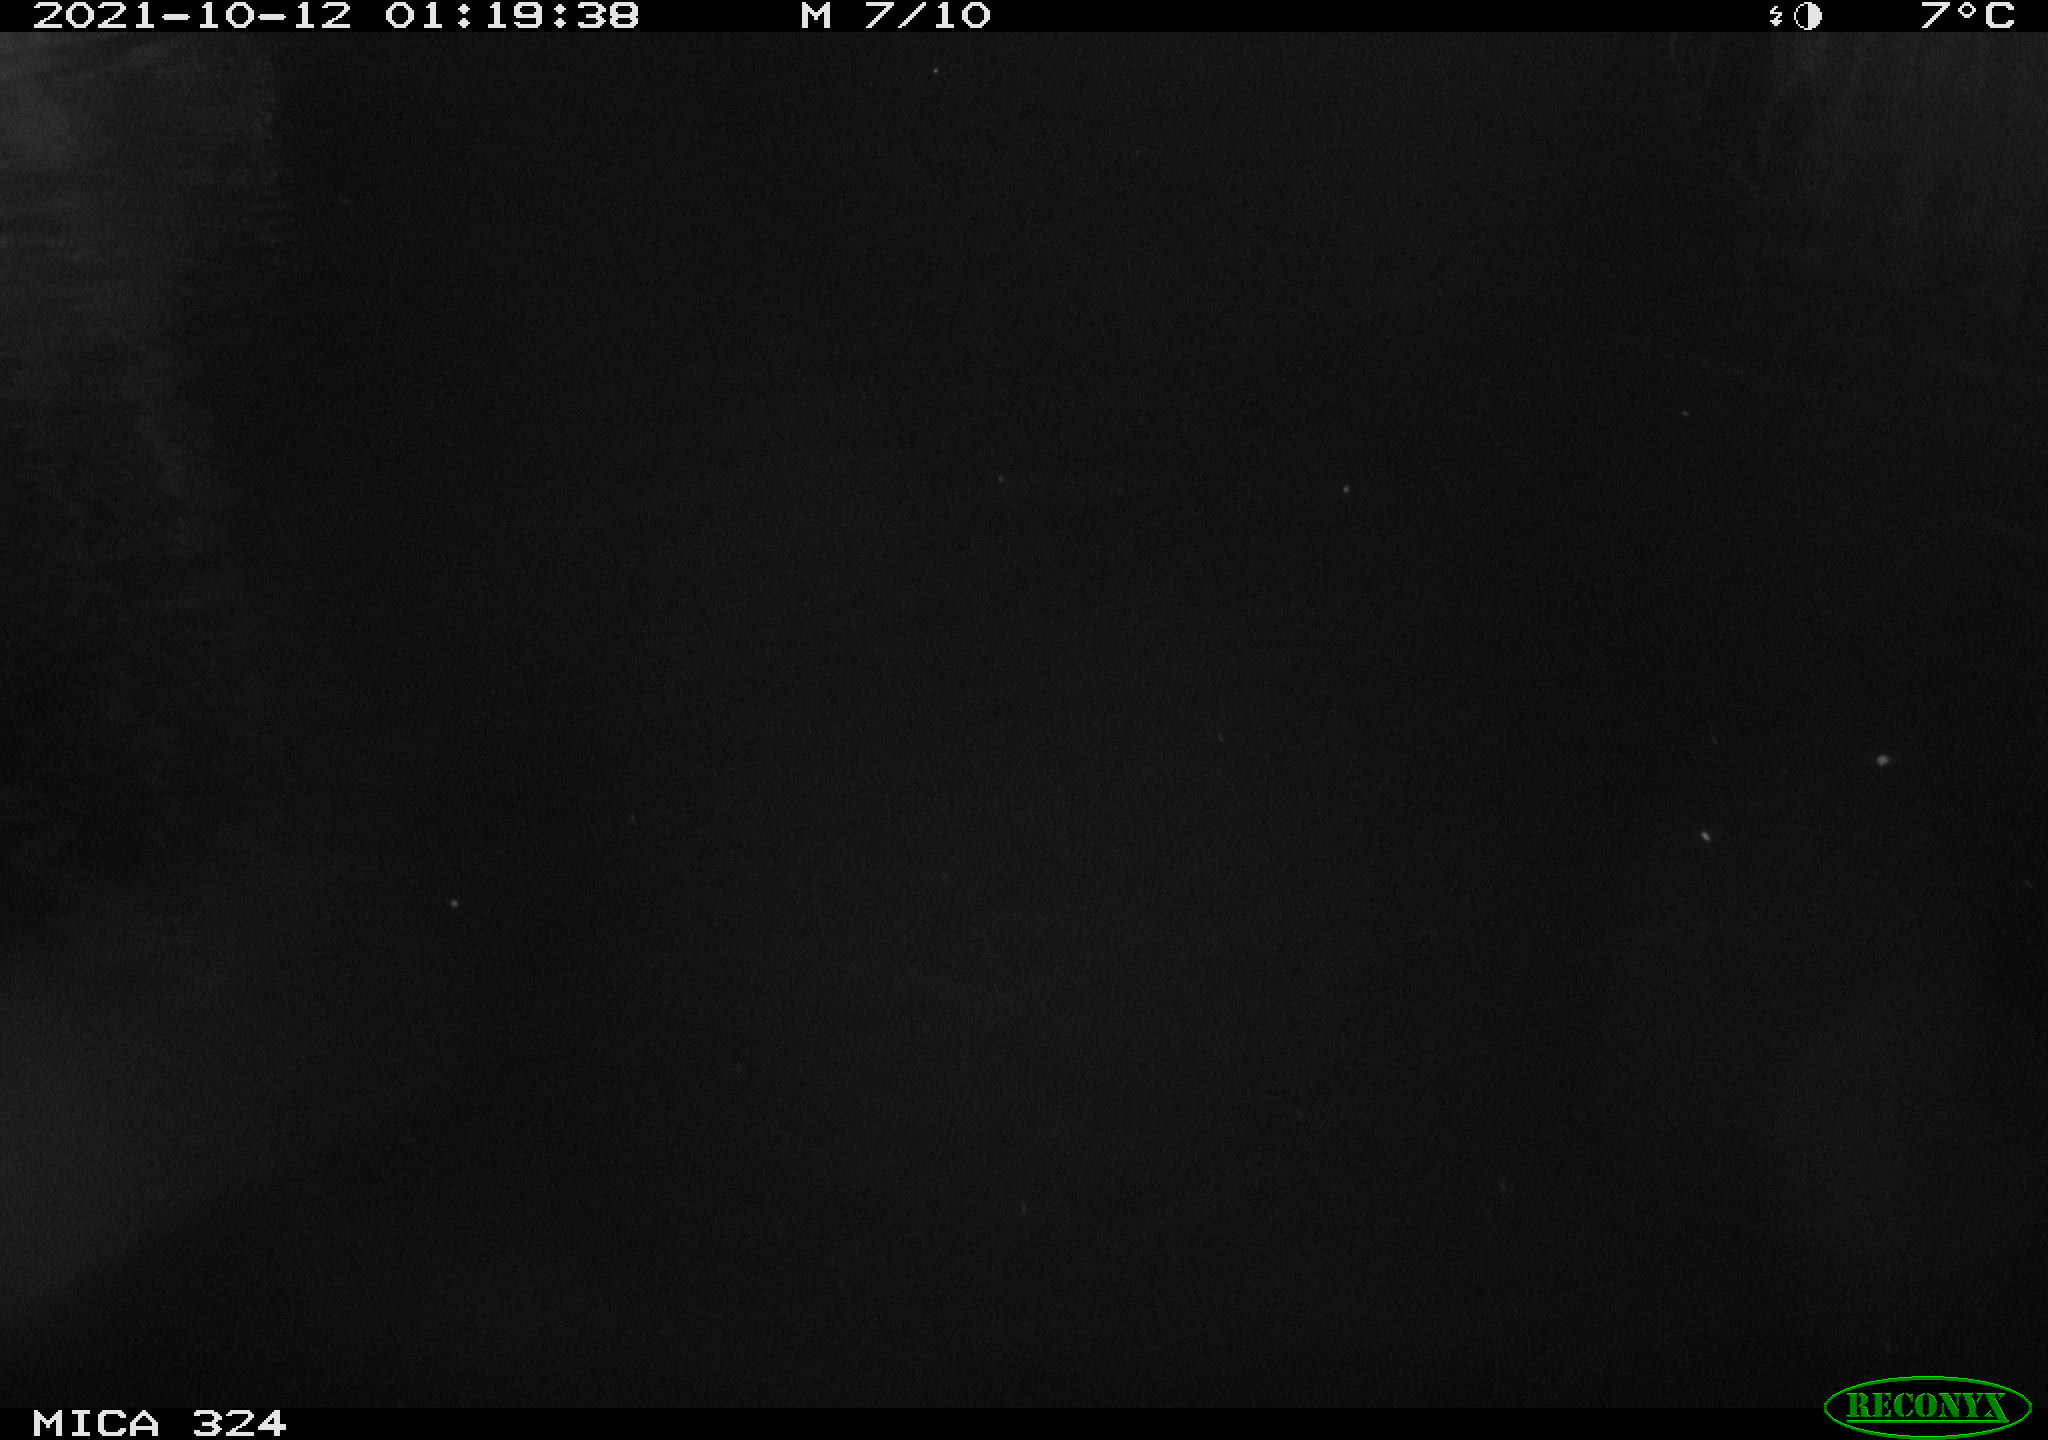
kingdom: Animalia
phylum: Chordata
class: Mammalia
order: Rodentia
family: Cricetidae
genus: Ondatra
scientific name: Ondatra zibethicus
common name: Muskrat
